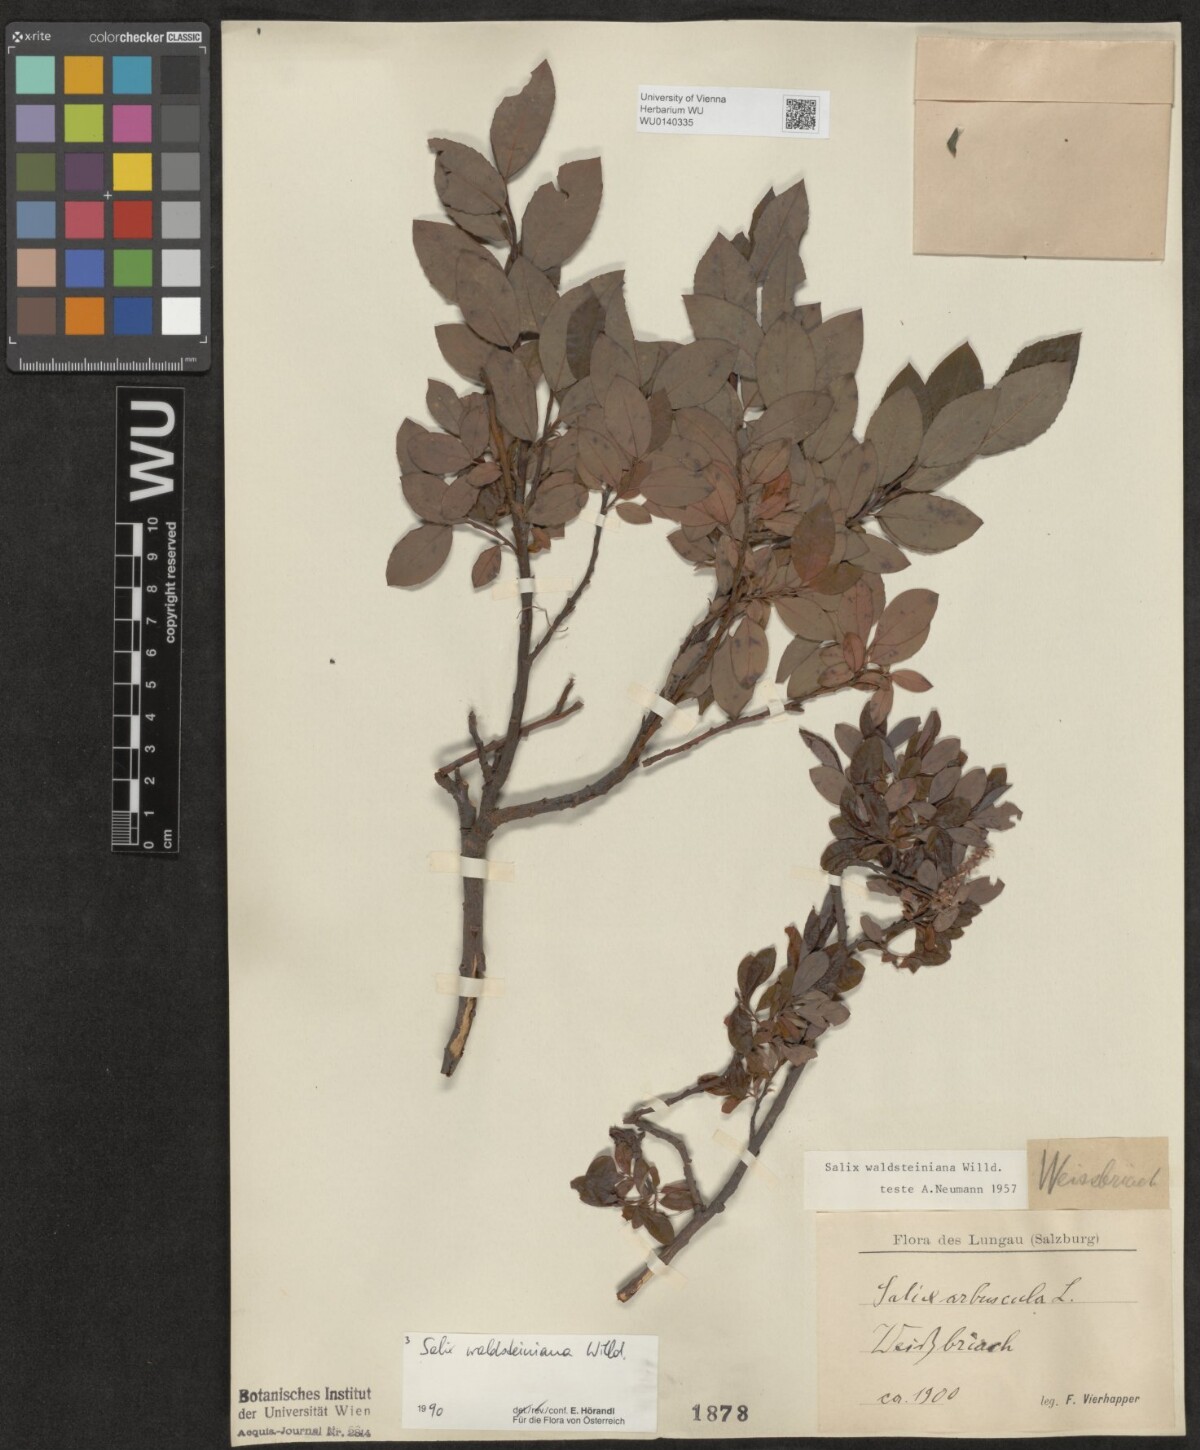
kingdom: Plantae
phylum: Tracheophyta
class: Magnoliopsida
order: Malpighiales
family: Salicaceae
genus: Salix
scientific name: Salix waldsteiniana
